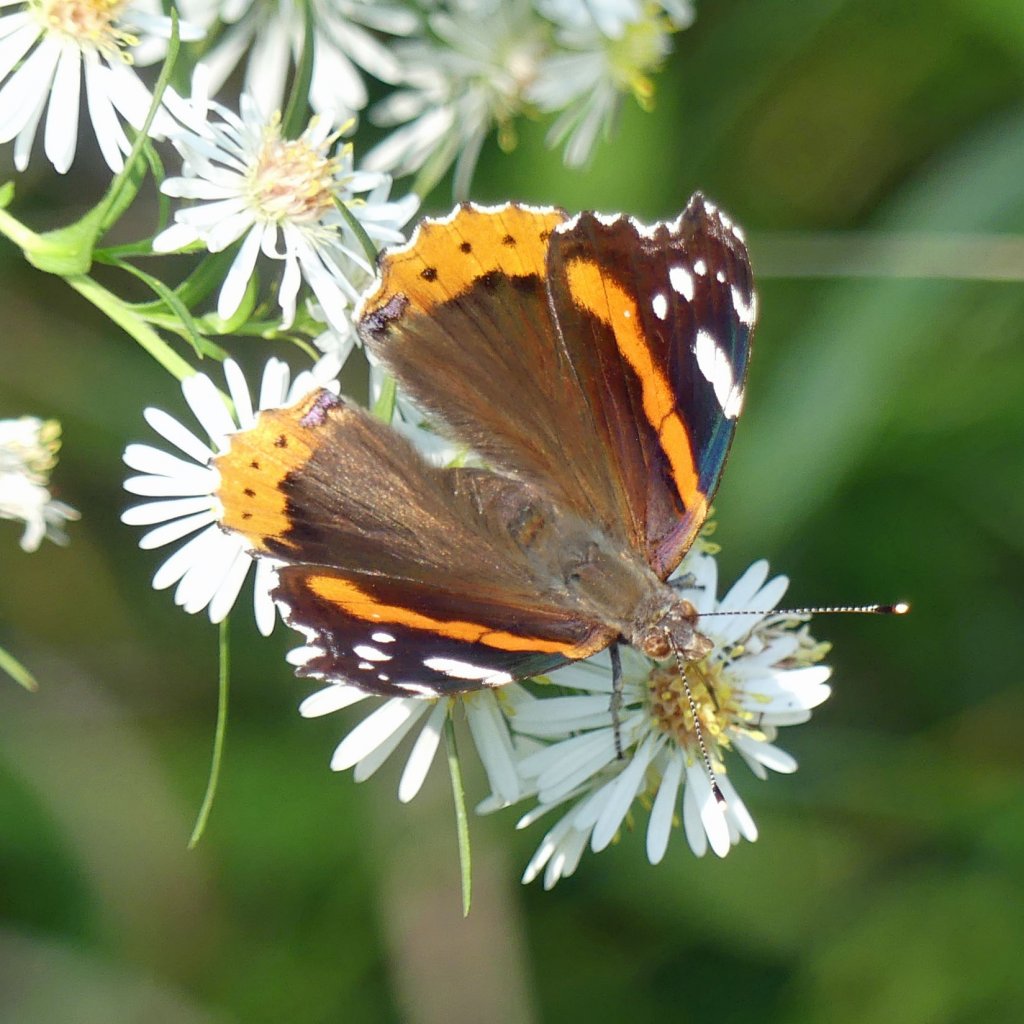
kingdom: Animalia
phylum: Arthropoda
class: Insecta
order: Lepidoptera
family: Nymphalidae
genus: Vanessa
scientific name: Vanessa atalanta
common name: Red Admiral
